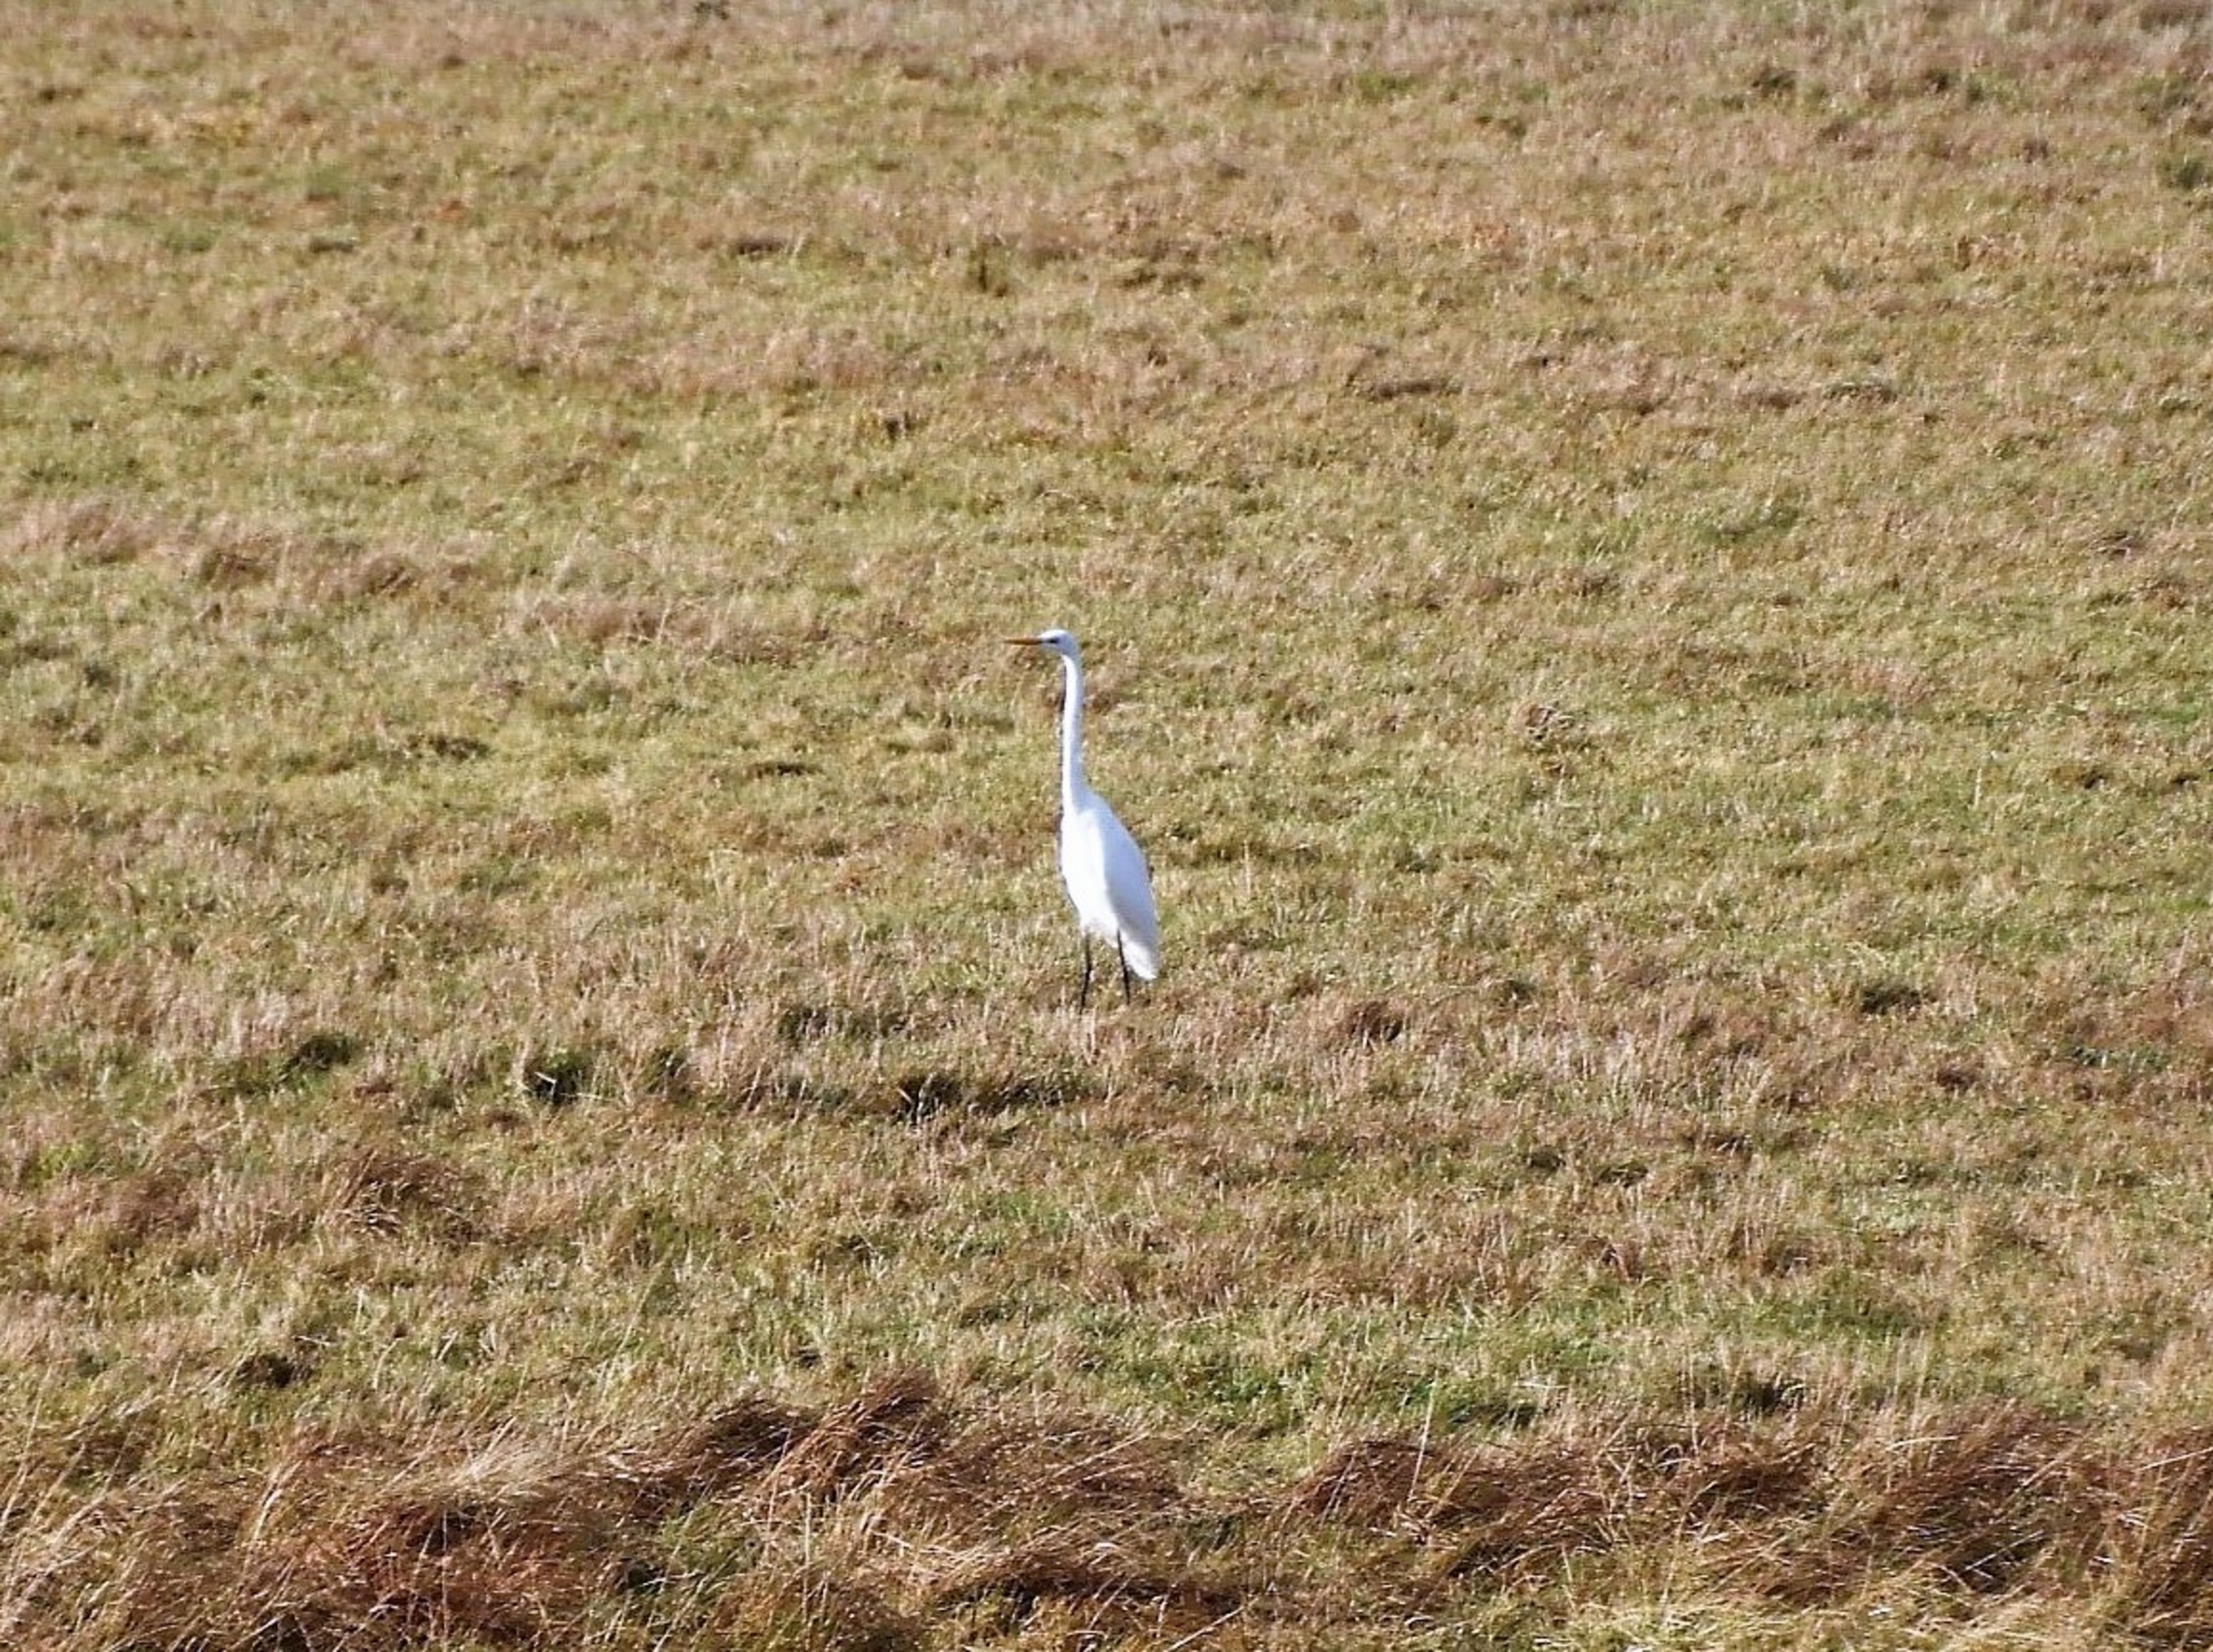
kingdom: Animalia
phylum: Chordata
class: Aves
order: Pelecaniformes
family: Ardeidae
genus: Ardea
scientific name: Ardea alba
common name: Sølvhejre
